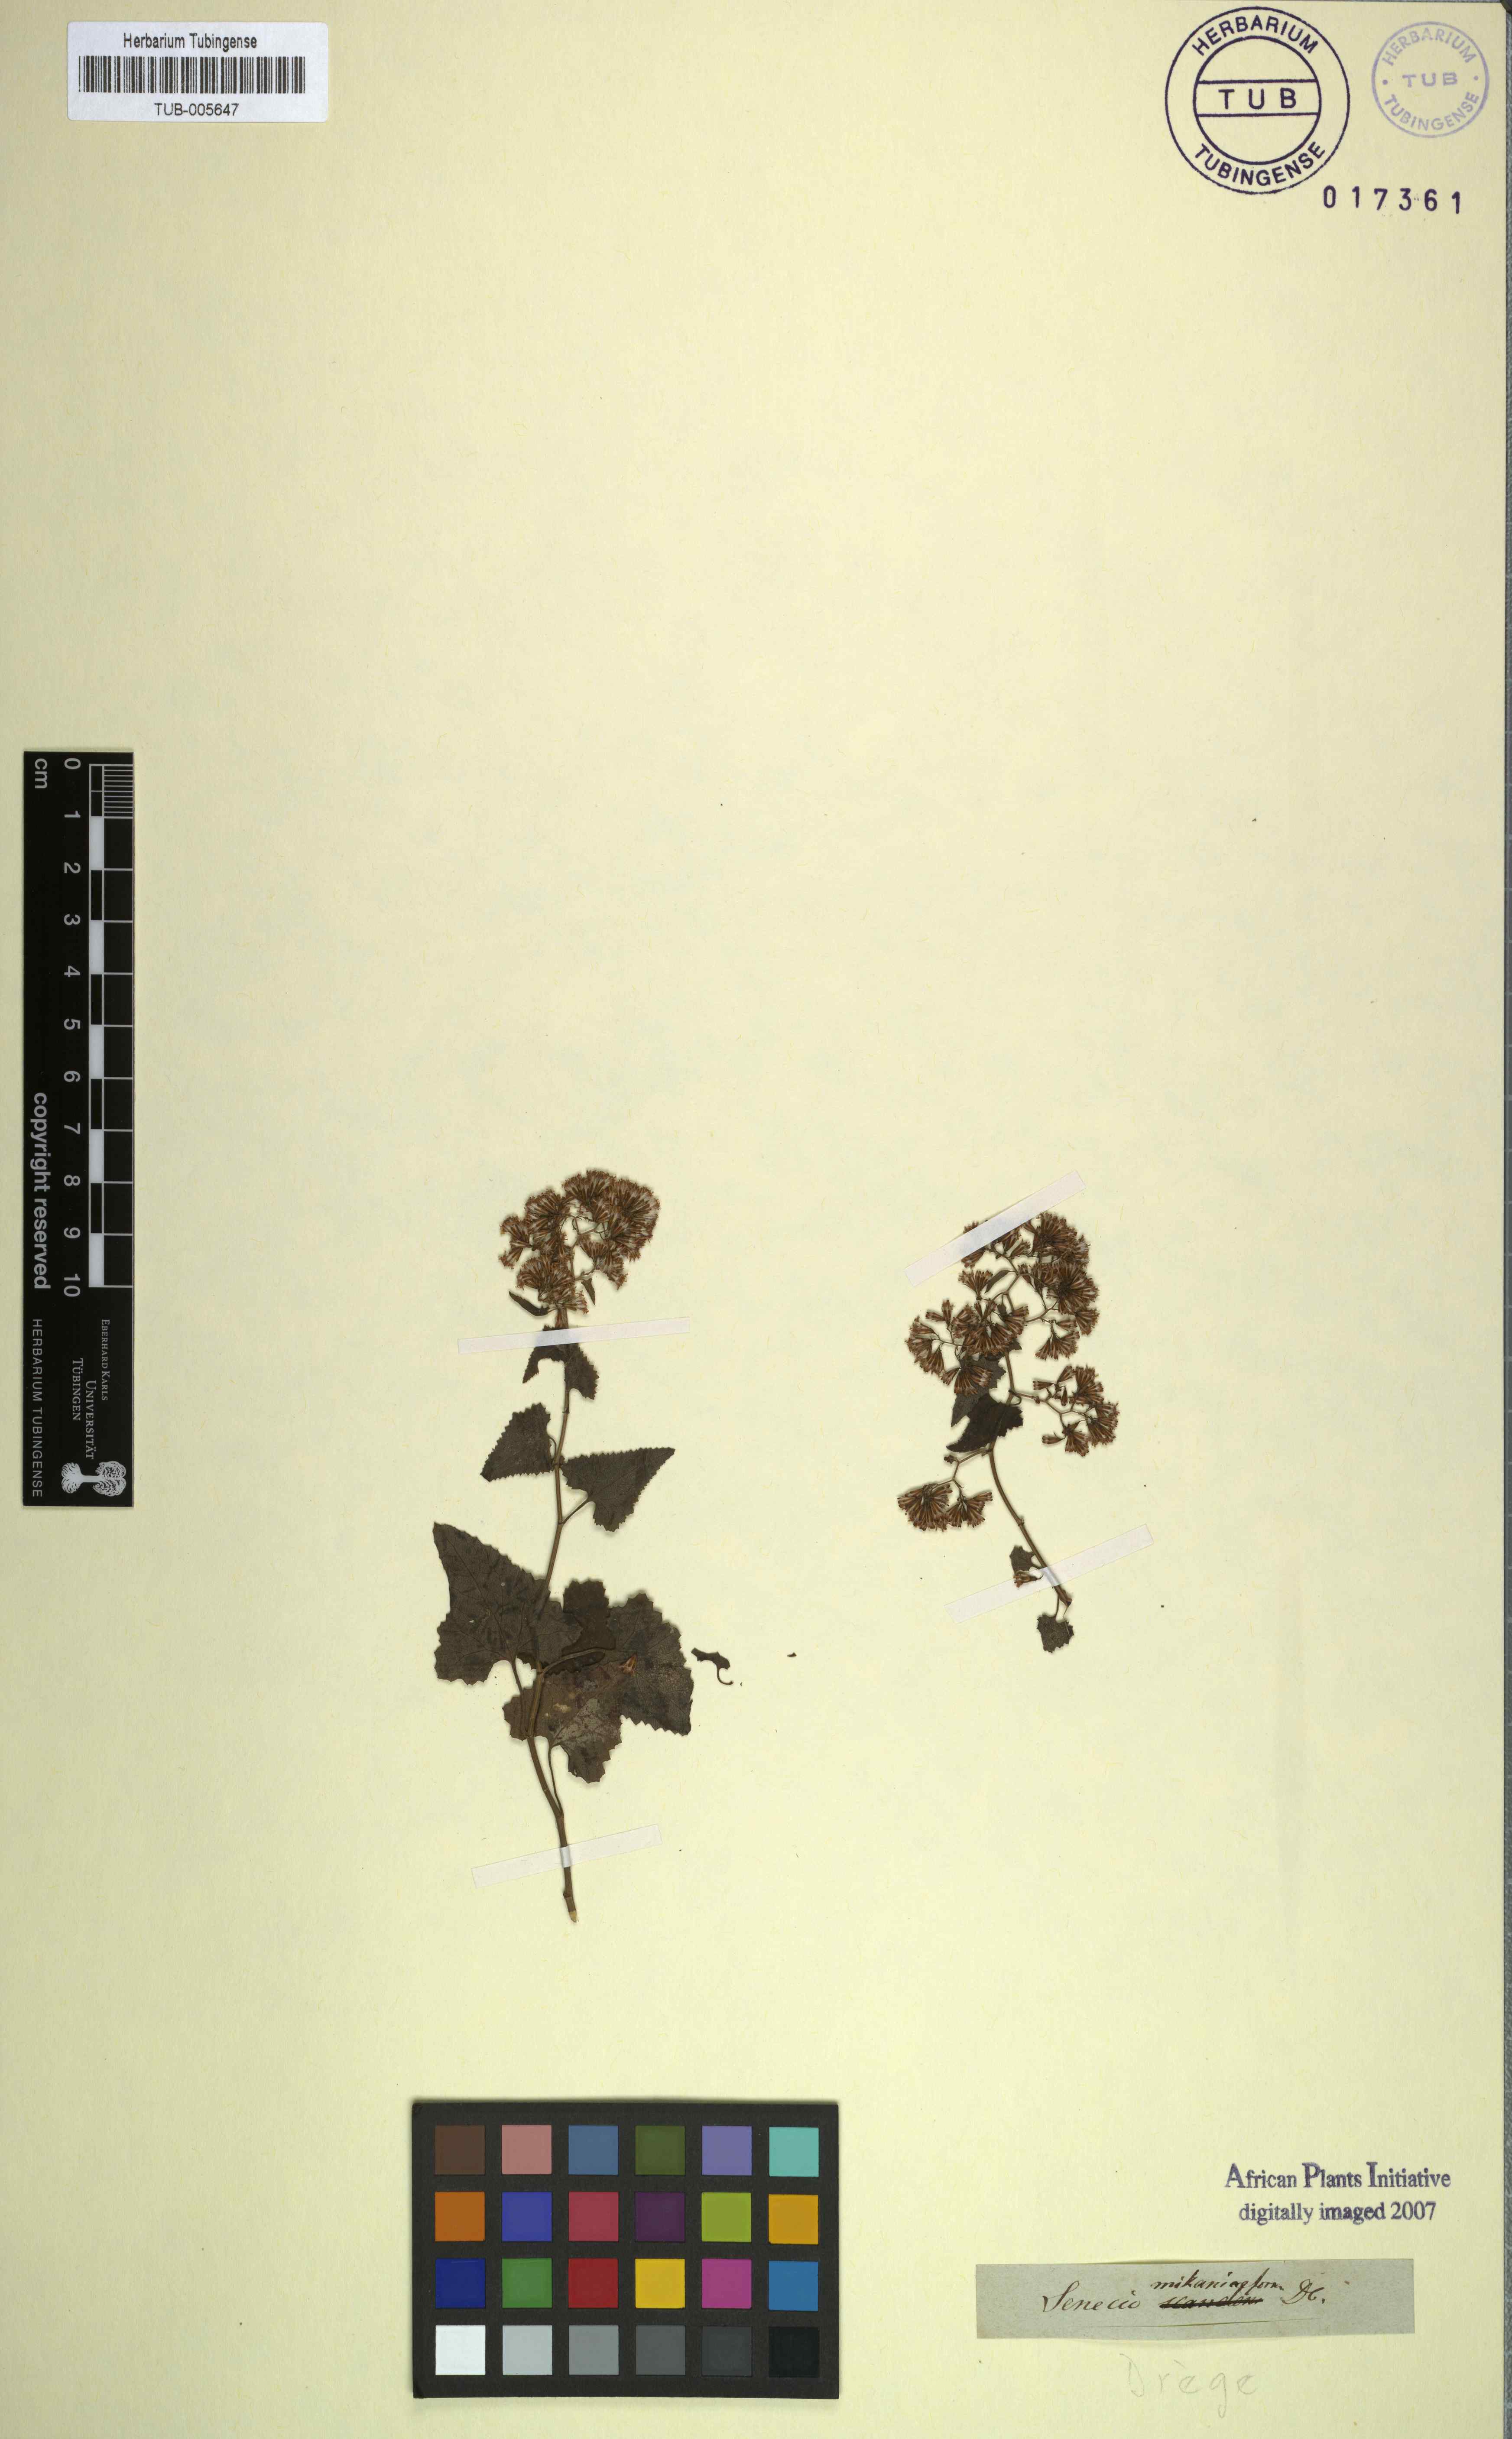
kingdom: Plantae
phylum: Tracheophyta
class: Magnoliopsida
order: Asterales
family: Asteraceae
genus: Senecio
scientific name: Senecio deltoideus
